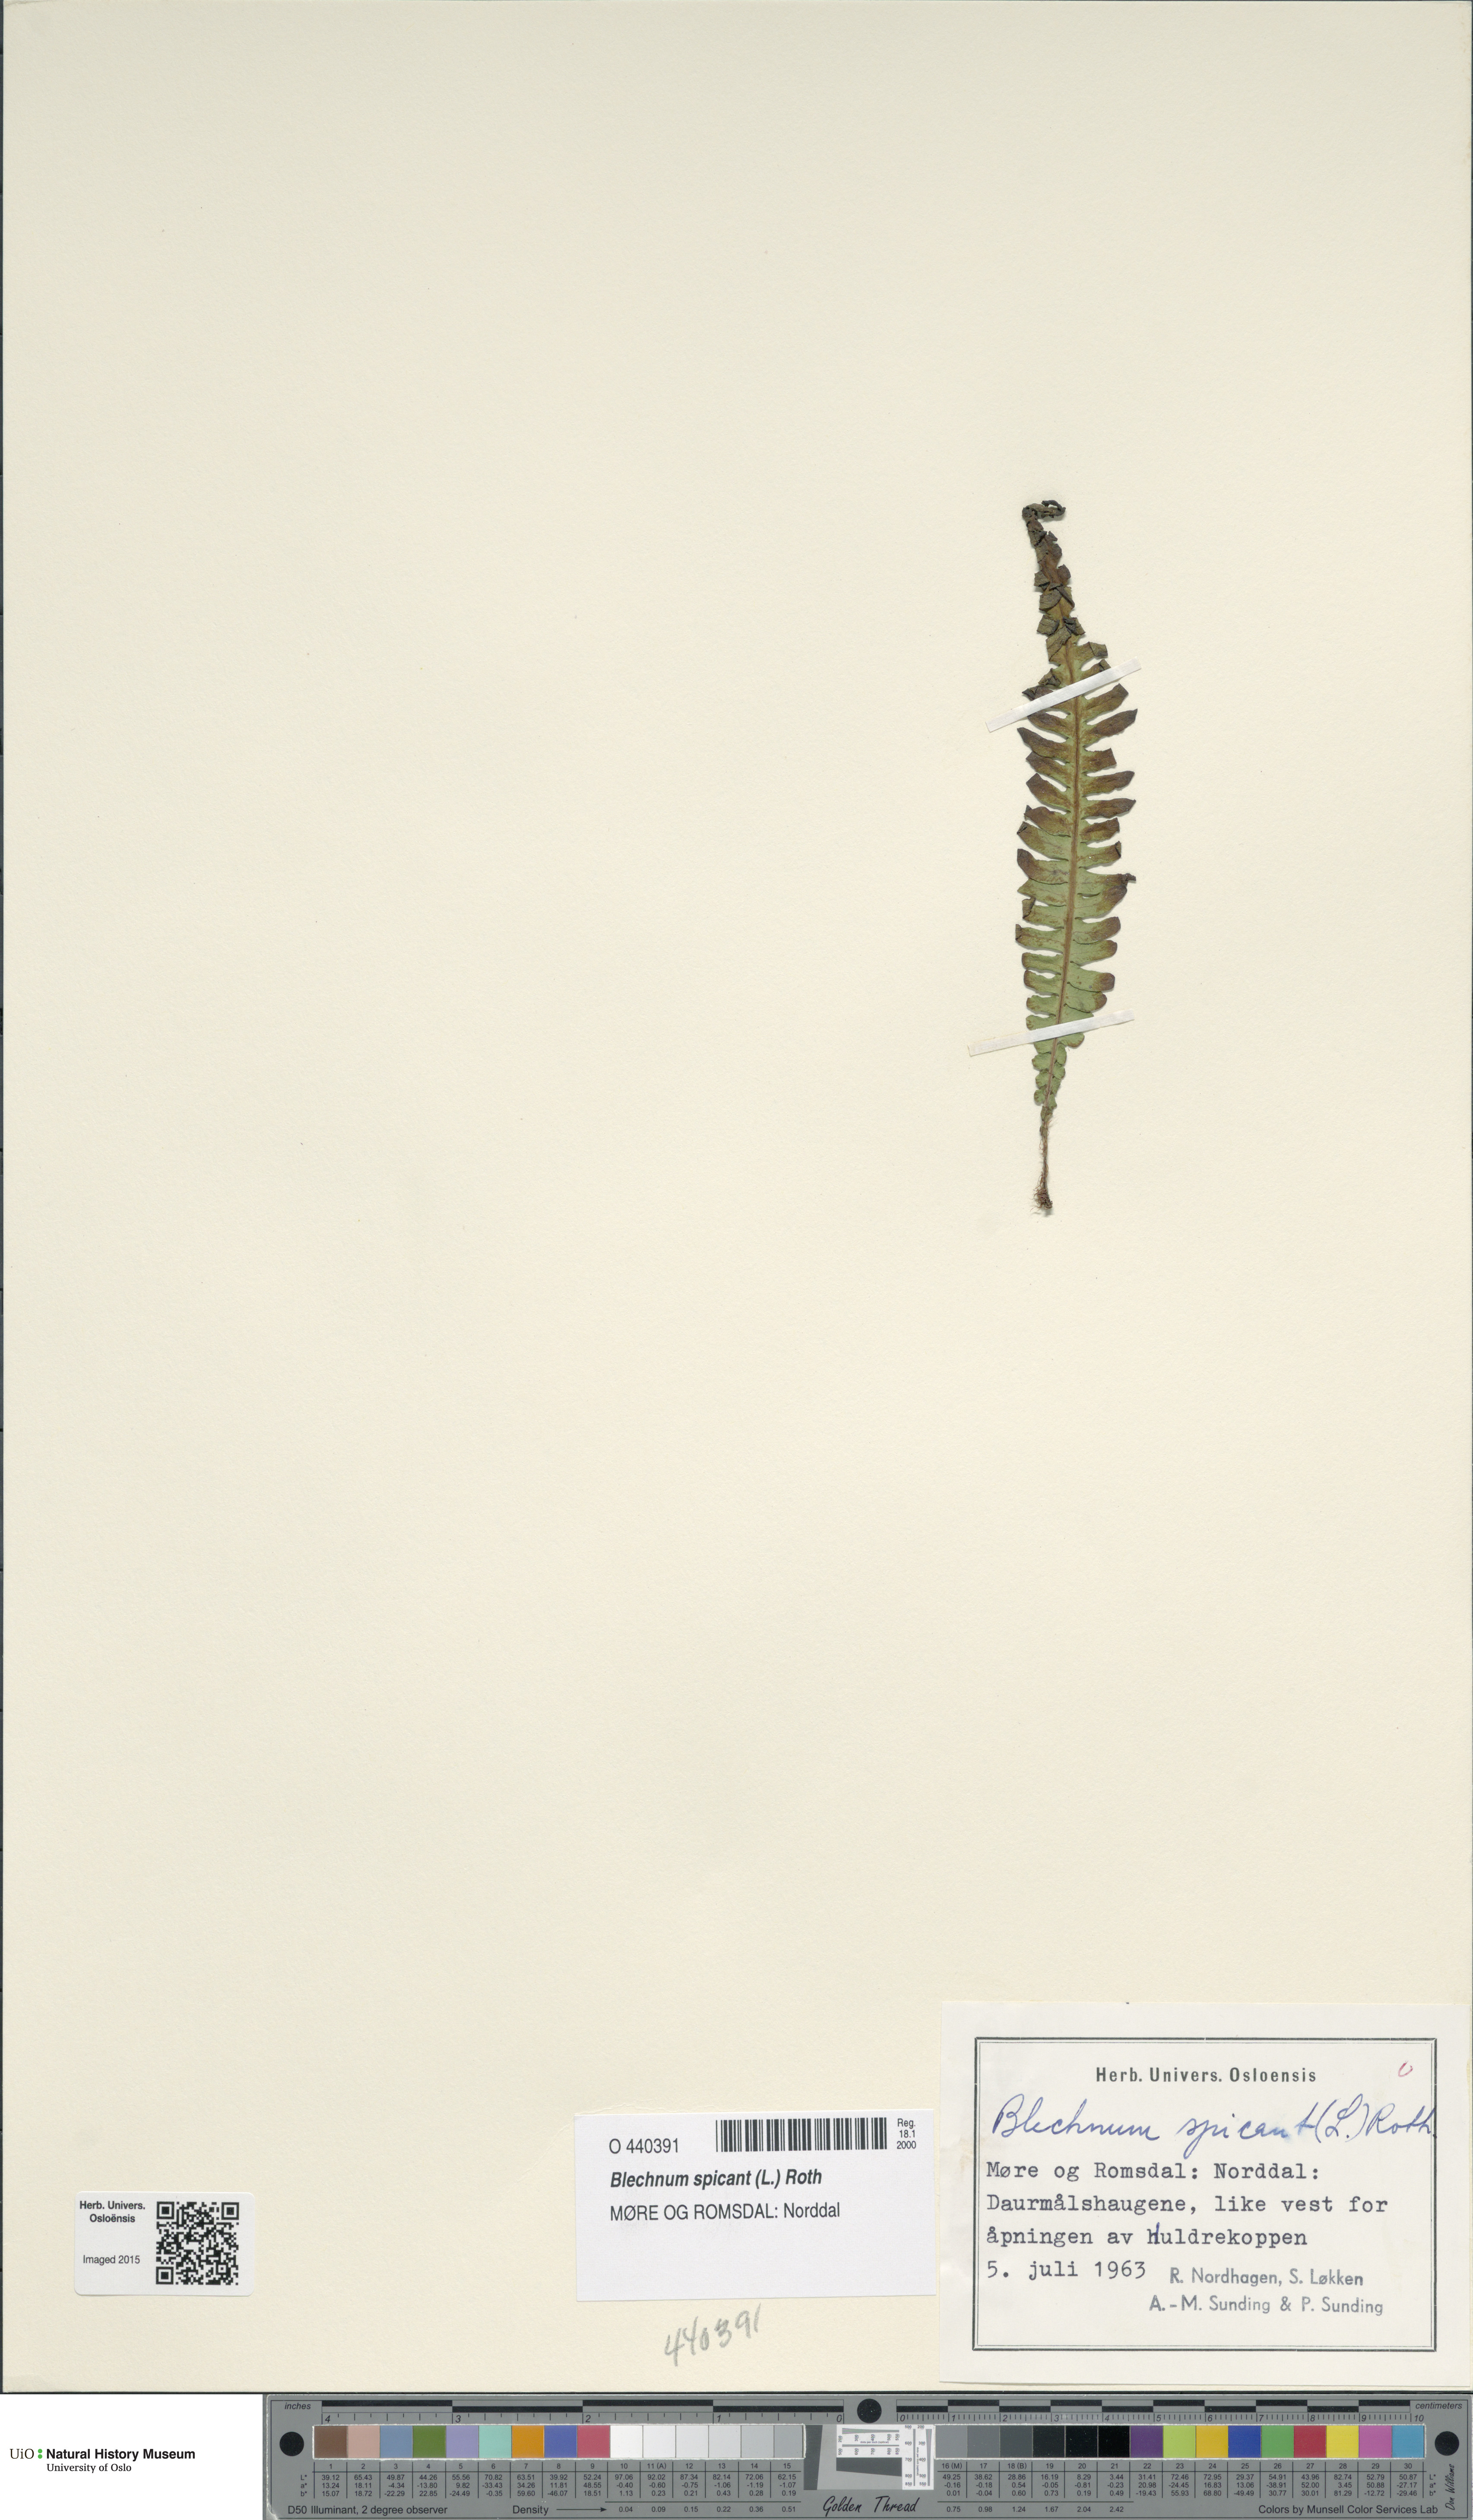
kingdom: Plantae
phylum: Tracheophyta
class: Polypodiopsida
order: Polypodiales
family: Blechnaceae
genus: Struthiopteris
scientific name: Struthiopteris spicant
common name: Deer fern
